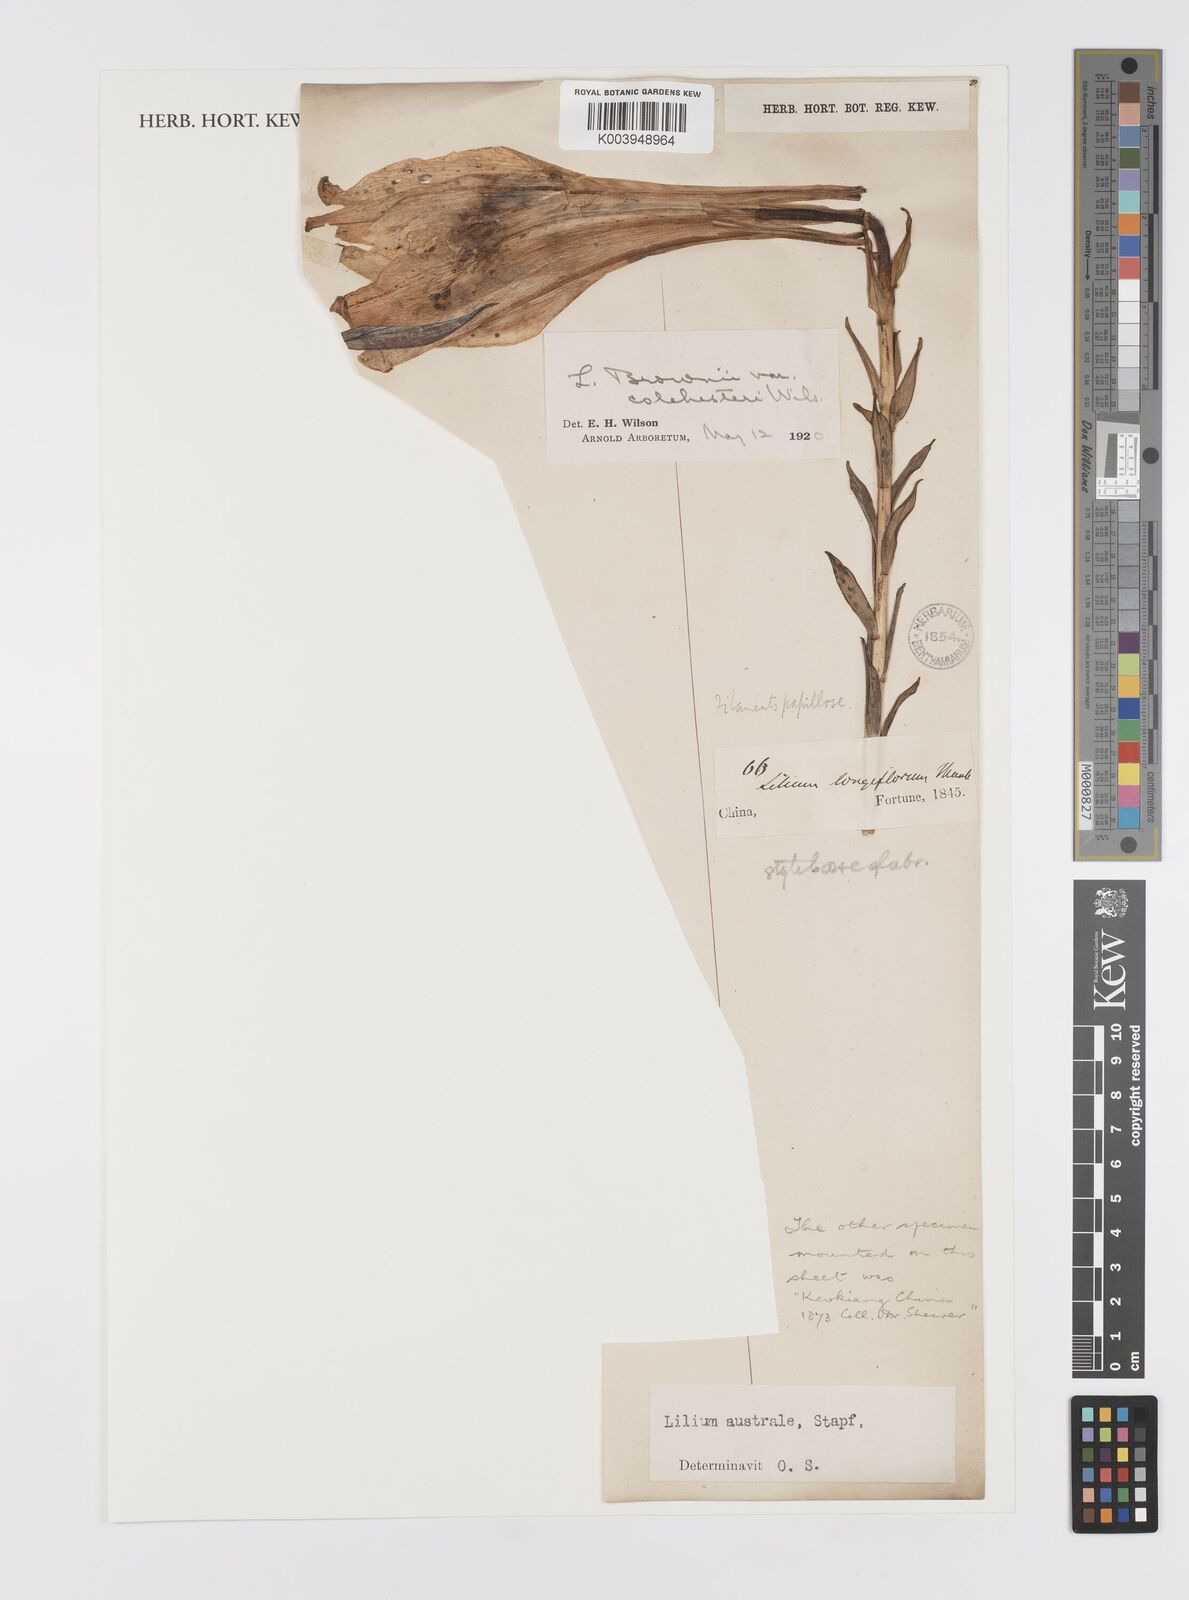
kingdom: Plantae
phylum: Tracheophyta
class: Liliopsida
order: Liliales
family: Liliaceae
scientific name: Liliaceae
